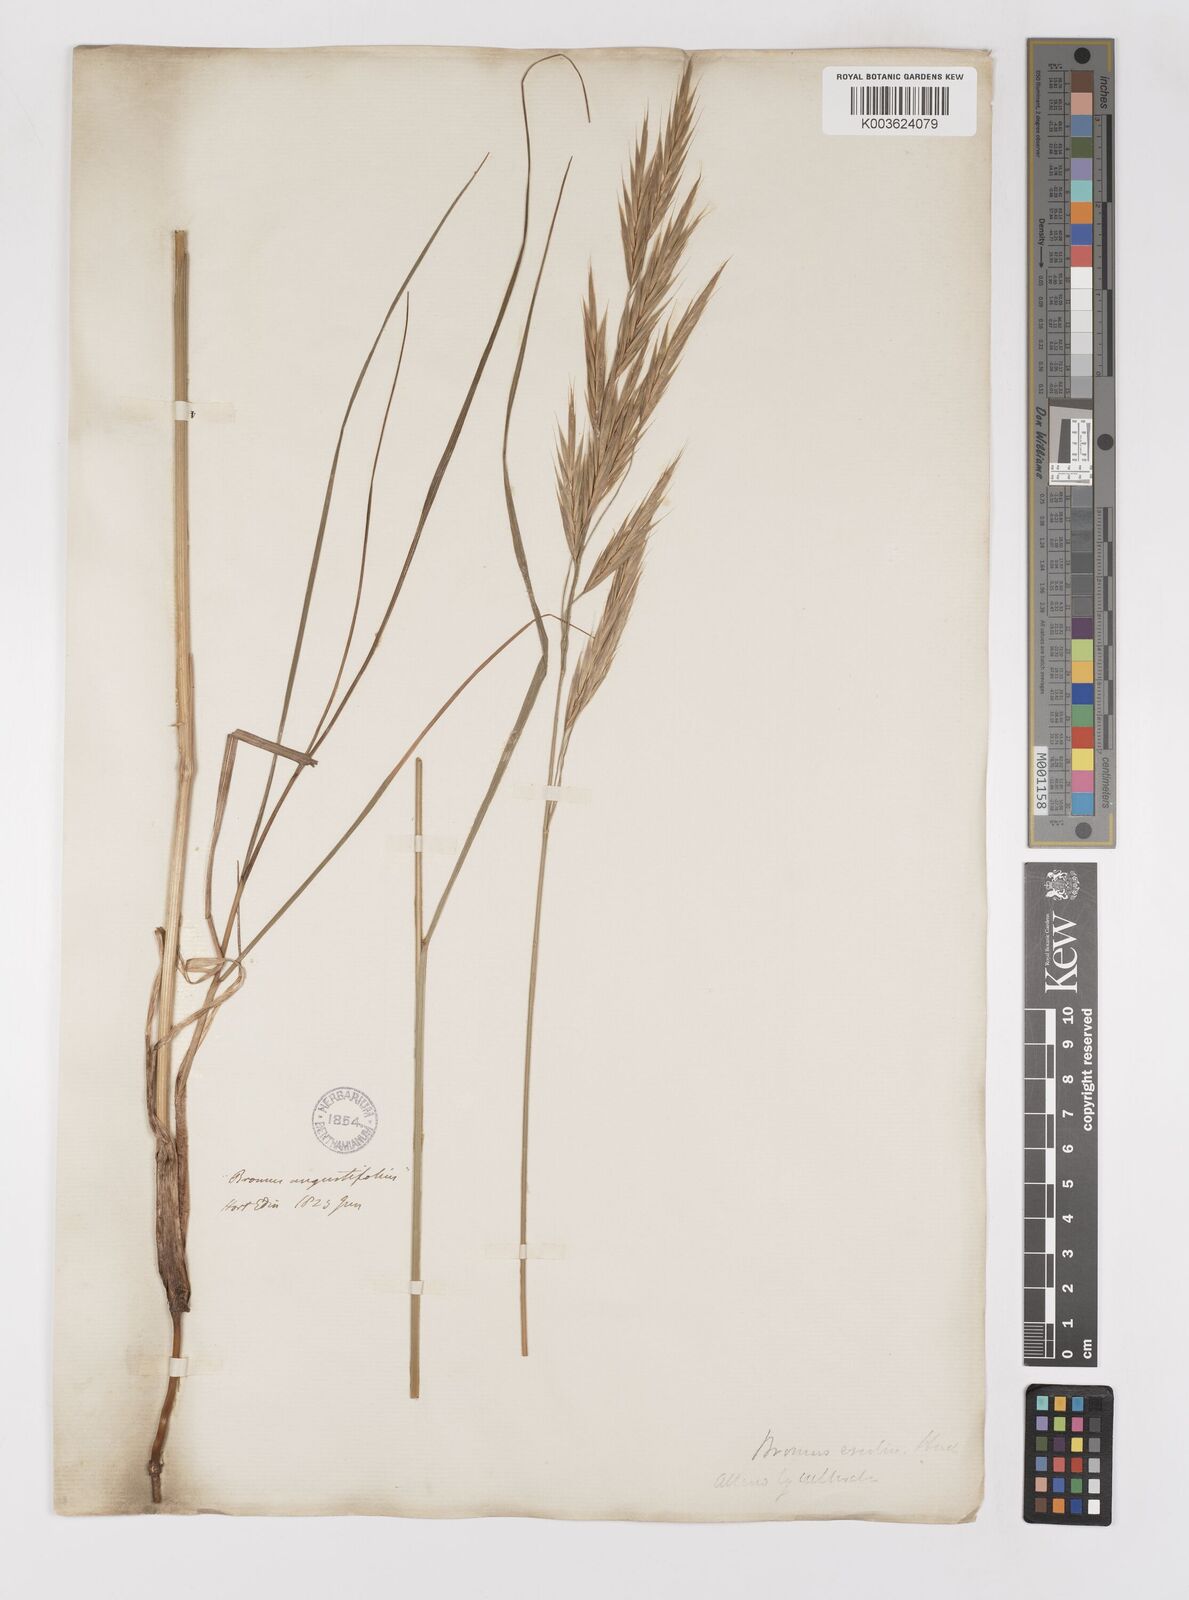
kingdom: Plantae
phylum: Tracheophyta
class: Liliopsida
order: Poales
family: Poaceae
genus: Bromus
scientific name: Bromus erectus
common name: Erect brome
